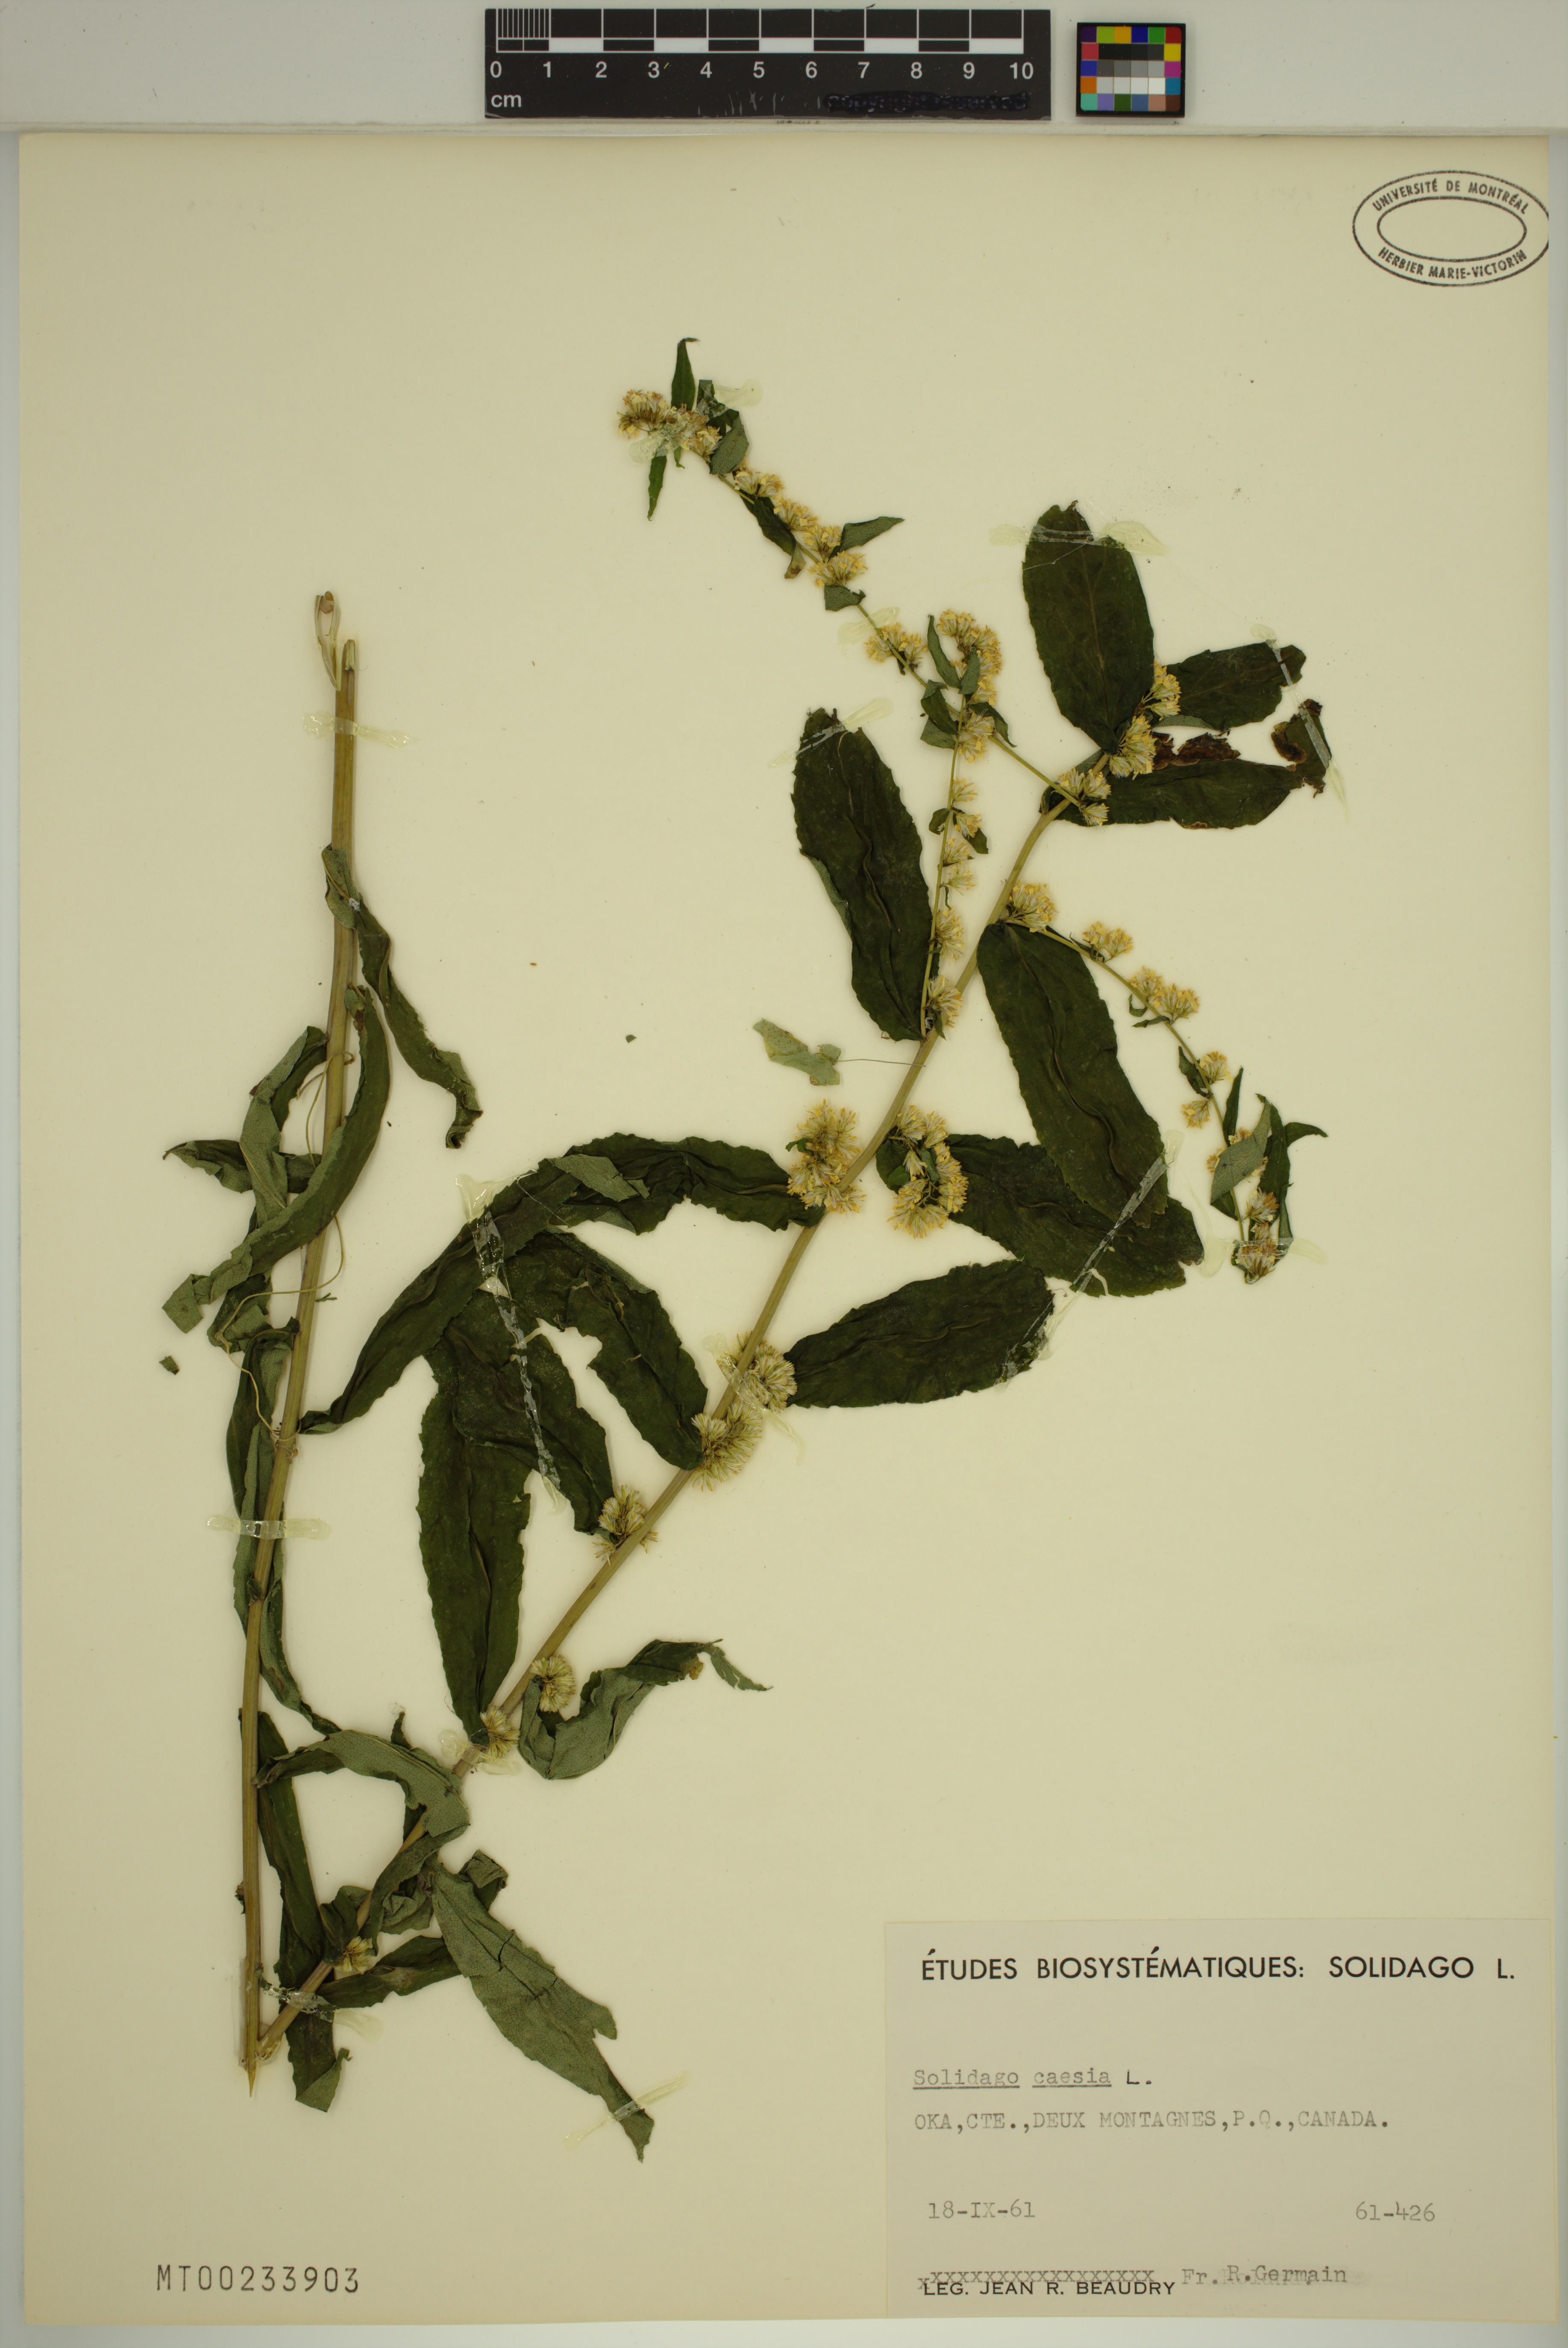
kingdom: Plantae
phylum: Tracheophyta
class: Magnoliopsida
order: Asterales
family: Asteraceae
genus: Solidago
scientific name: Solidago caesia
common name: Woodland goldenrod
